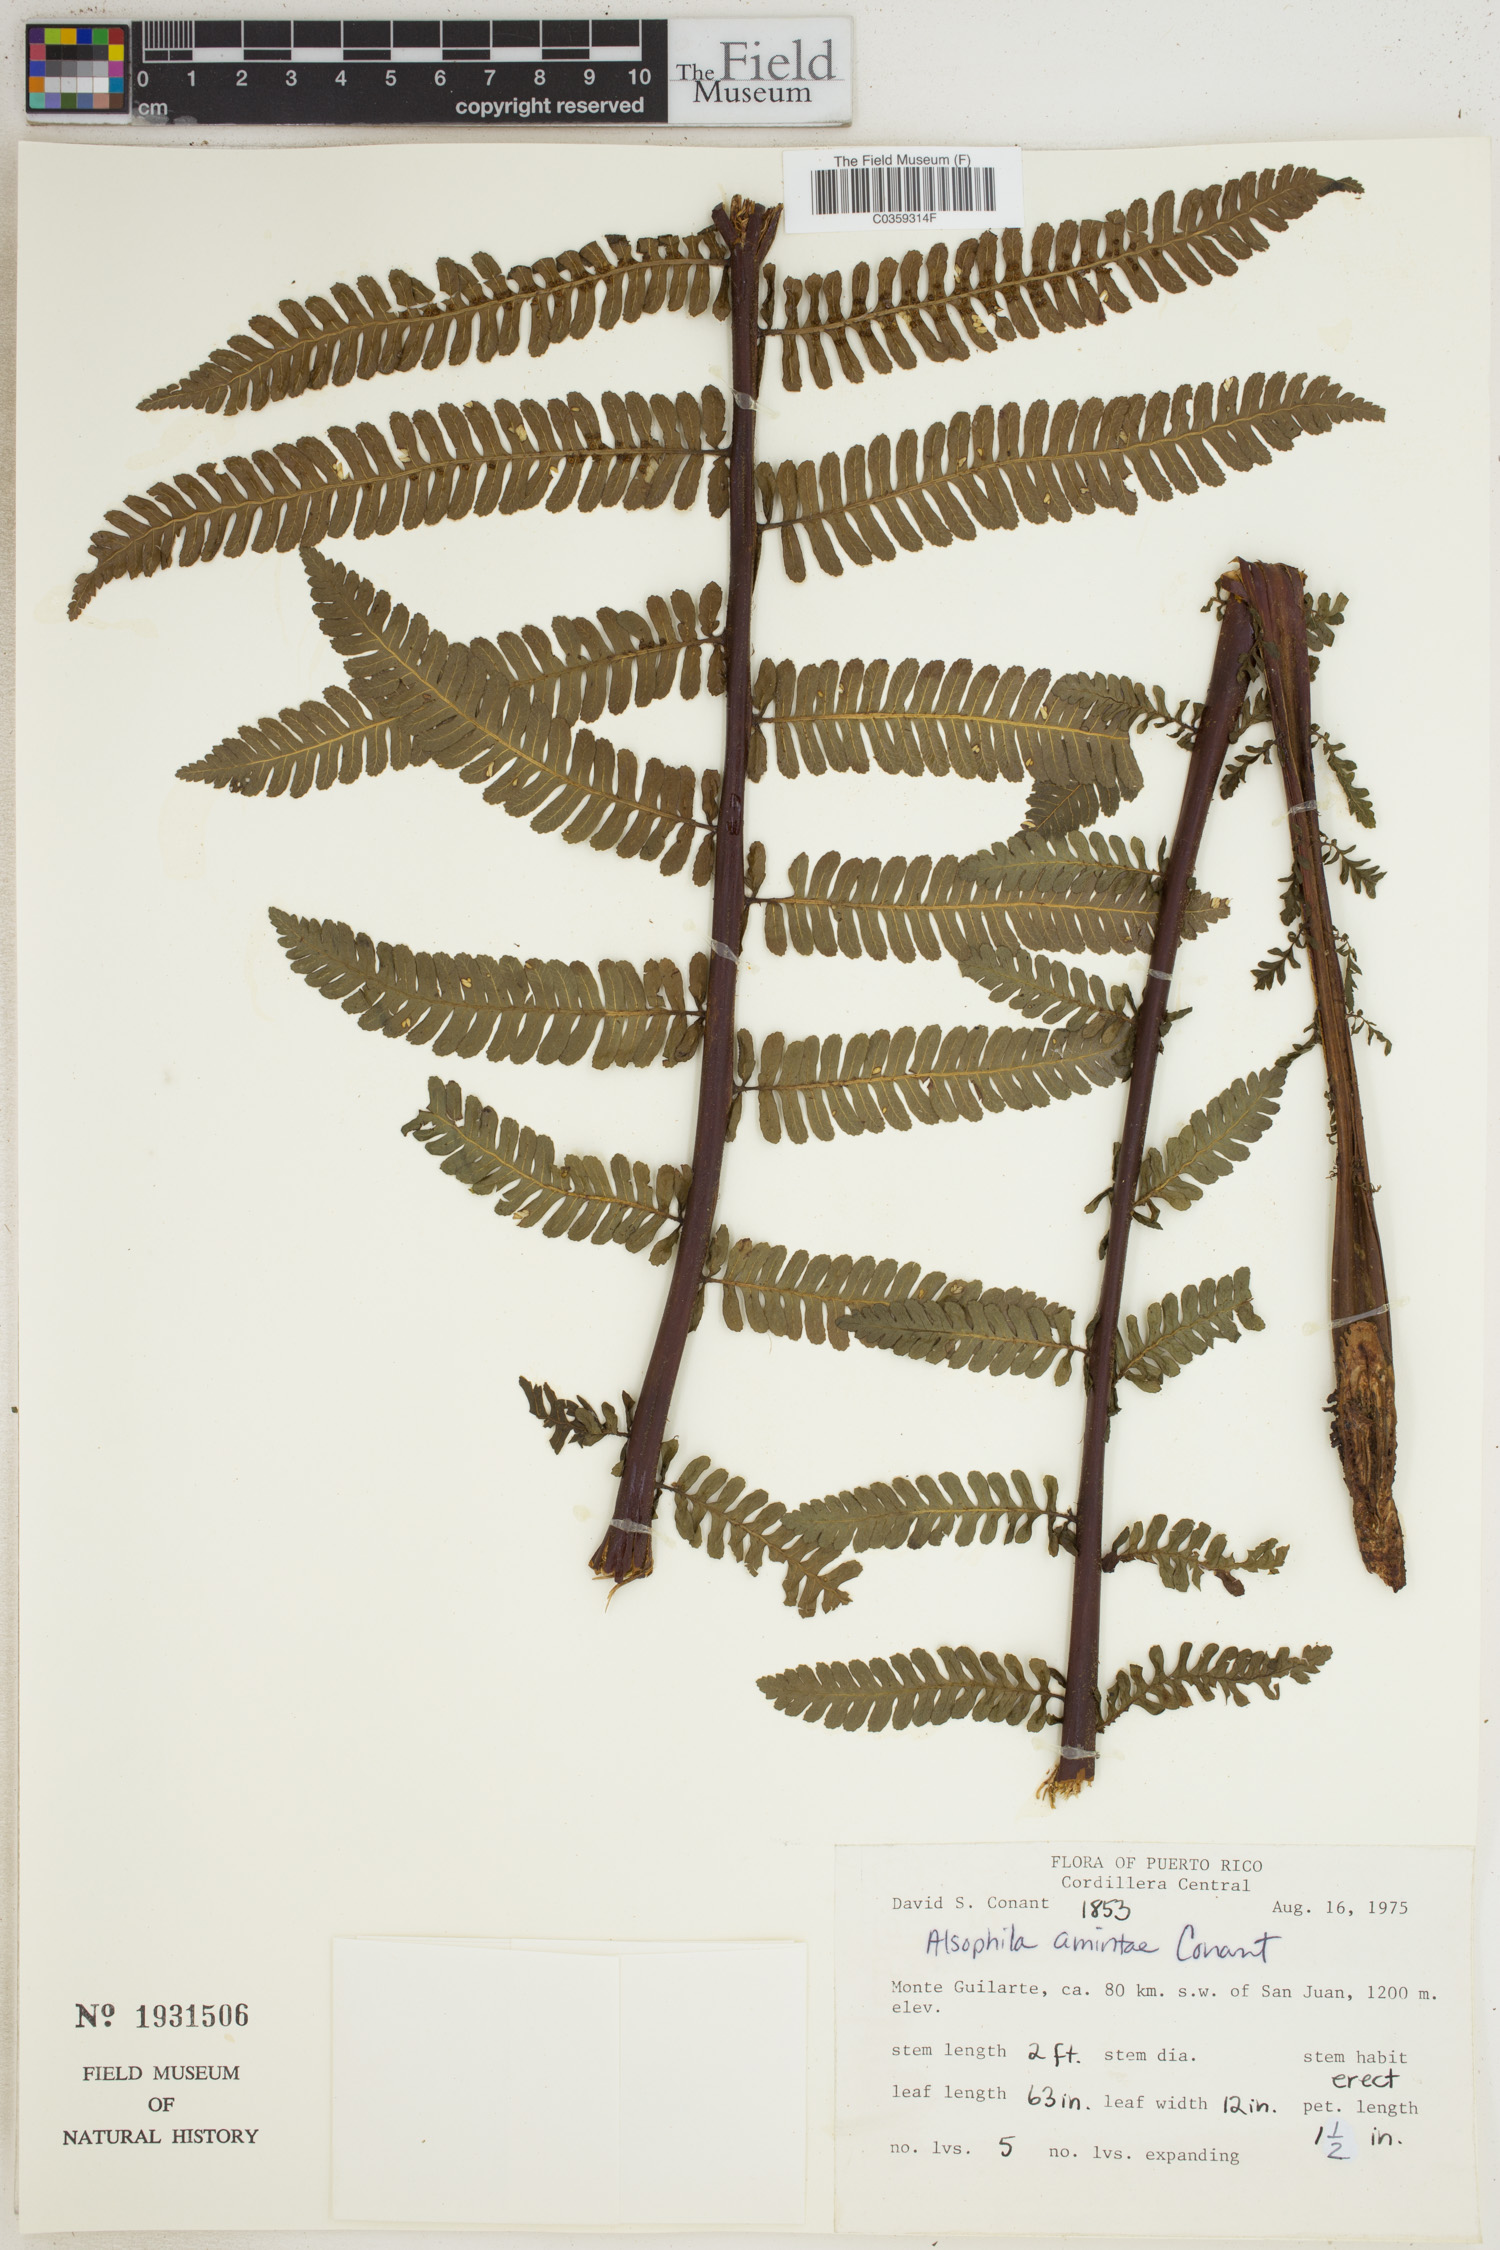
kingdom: Plantae
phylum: Tracheophyta
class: Polypodiopsida
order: Cyatheales
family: Cyatheaceae
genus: Alsophila
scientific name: Alsophila dryopteroides
